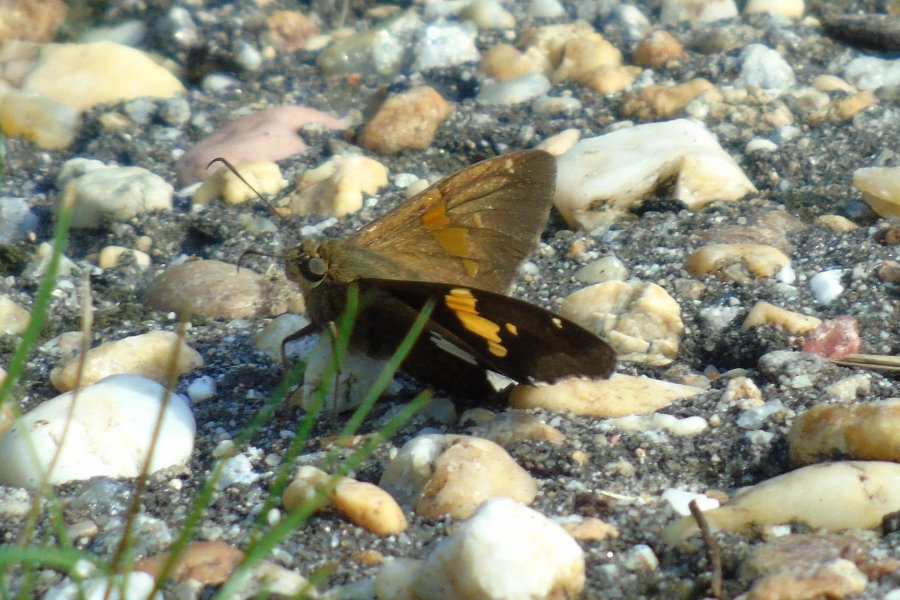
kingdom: Animalia
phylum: Arthropoda
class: Insecta
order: Lepidoptera
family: Hesperiidae
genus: Epargyreus
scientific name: Epargyreus clarus
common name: Silver-spotted Skipper
